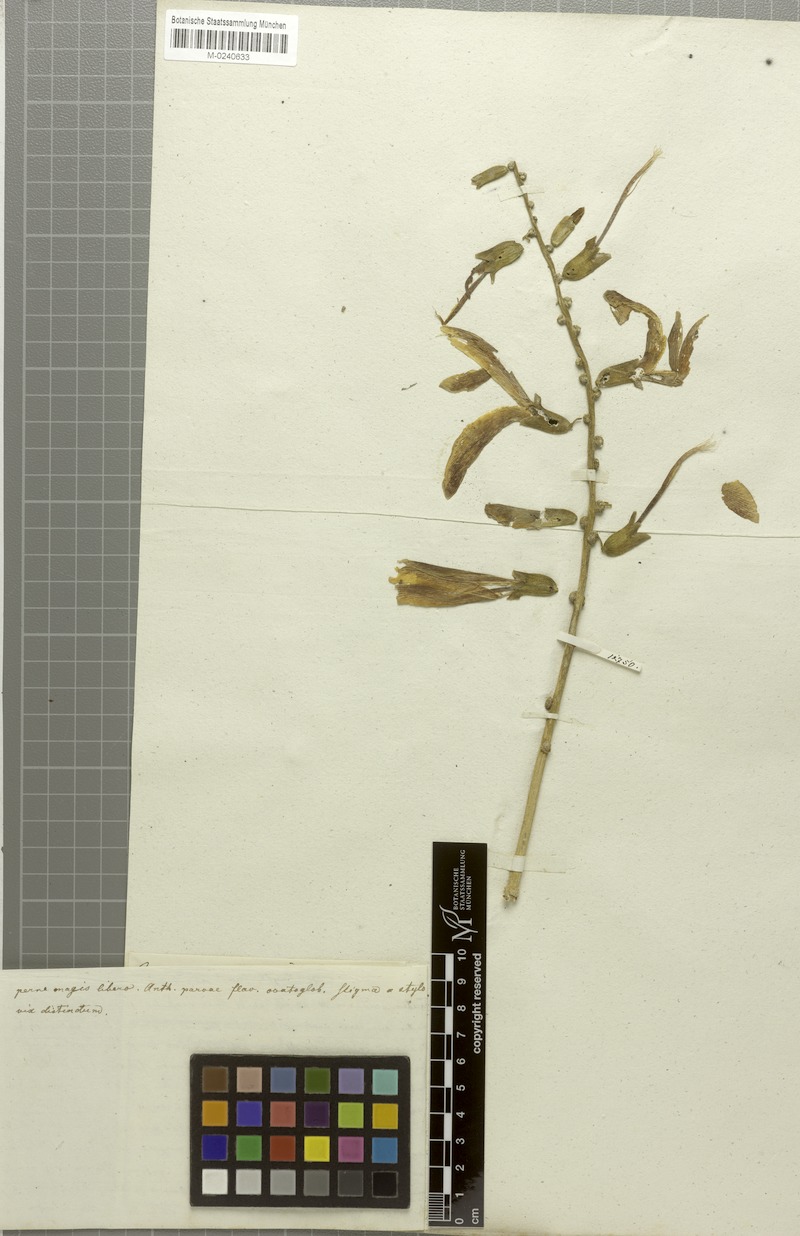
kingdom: Plantae
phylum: Tracheophyta
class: Magnoliopsida
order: Fabales
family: Fabaceae
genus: Camptosema
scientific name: Camptosema spectabile
